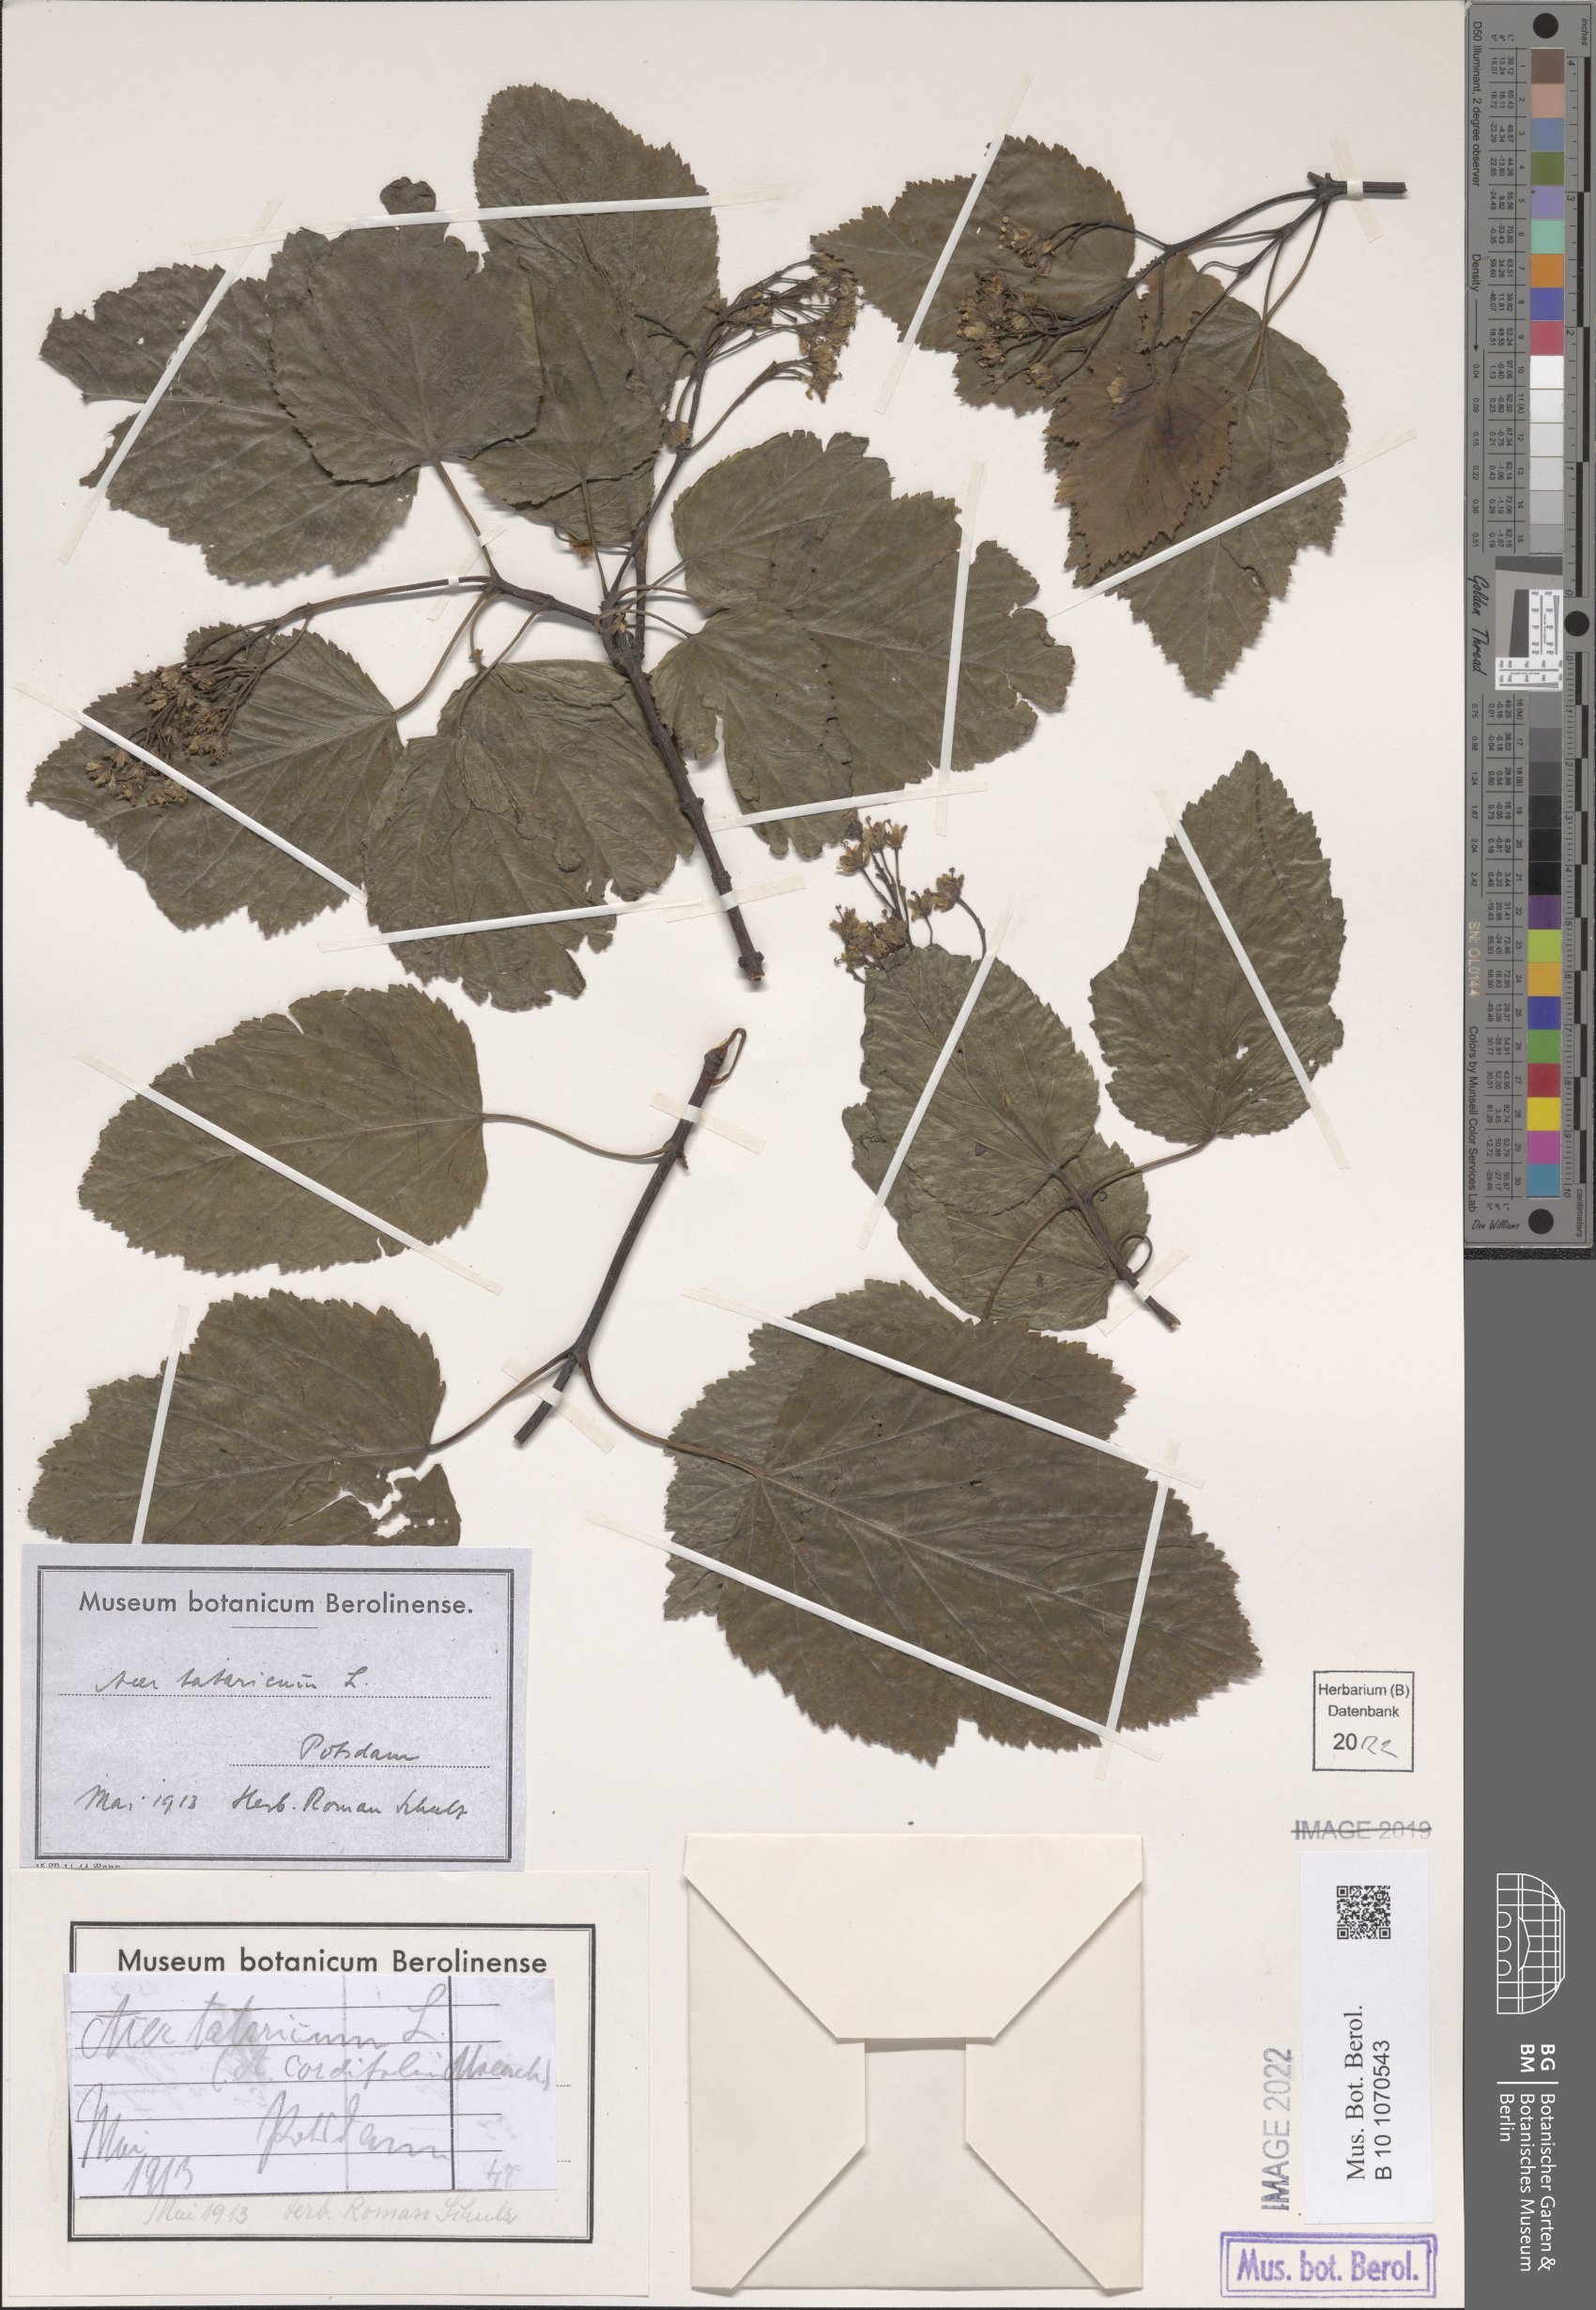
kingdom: Plantae
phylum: Tracheophyta
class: Magnoliopsida
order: Sapindales
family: Sapindaceae
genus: Acer
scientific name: Acer tataricum
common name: Tartar maple
